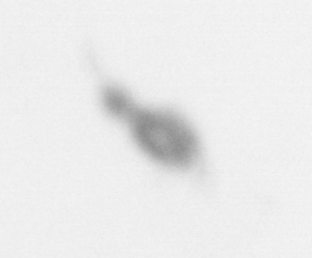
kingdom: Animalia
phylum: Arthropoda
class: Copepoda
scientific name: Copepoda
